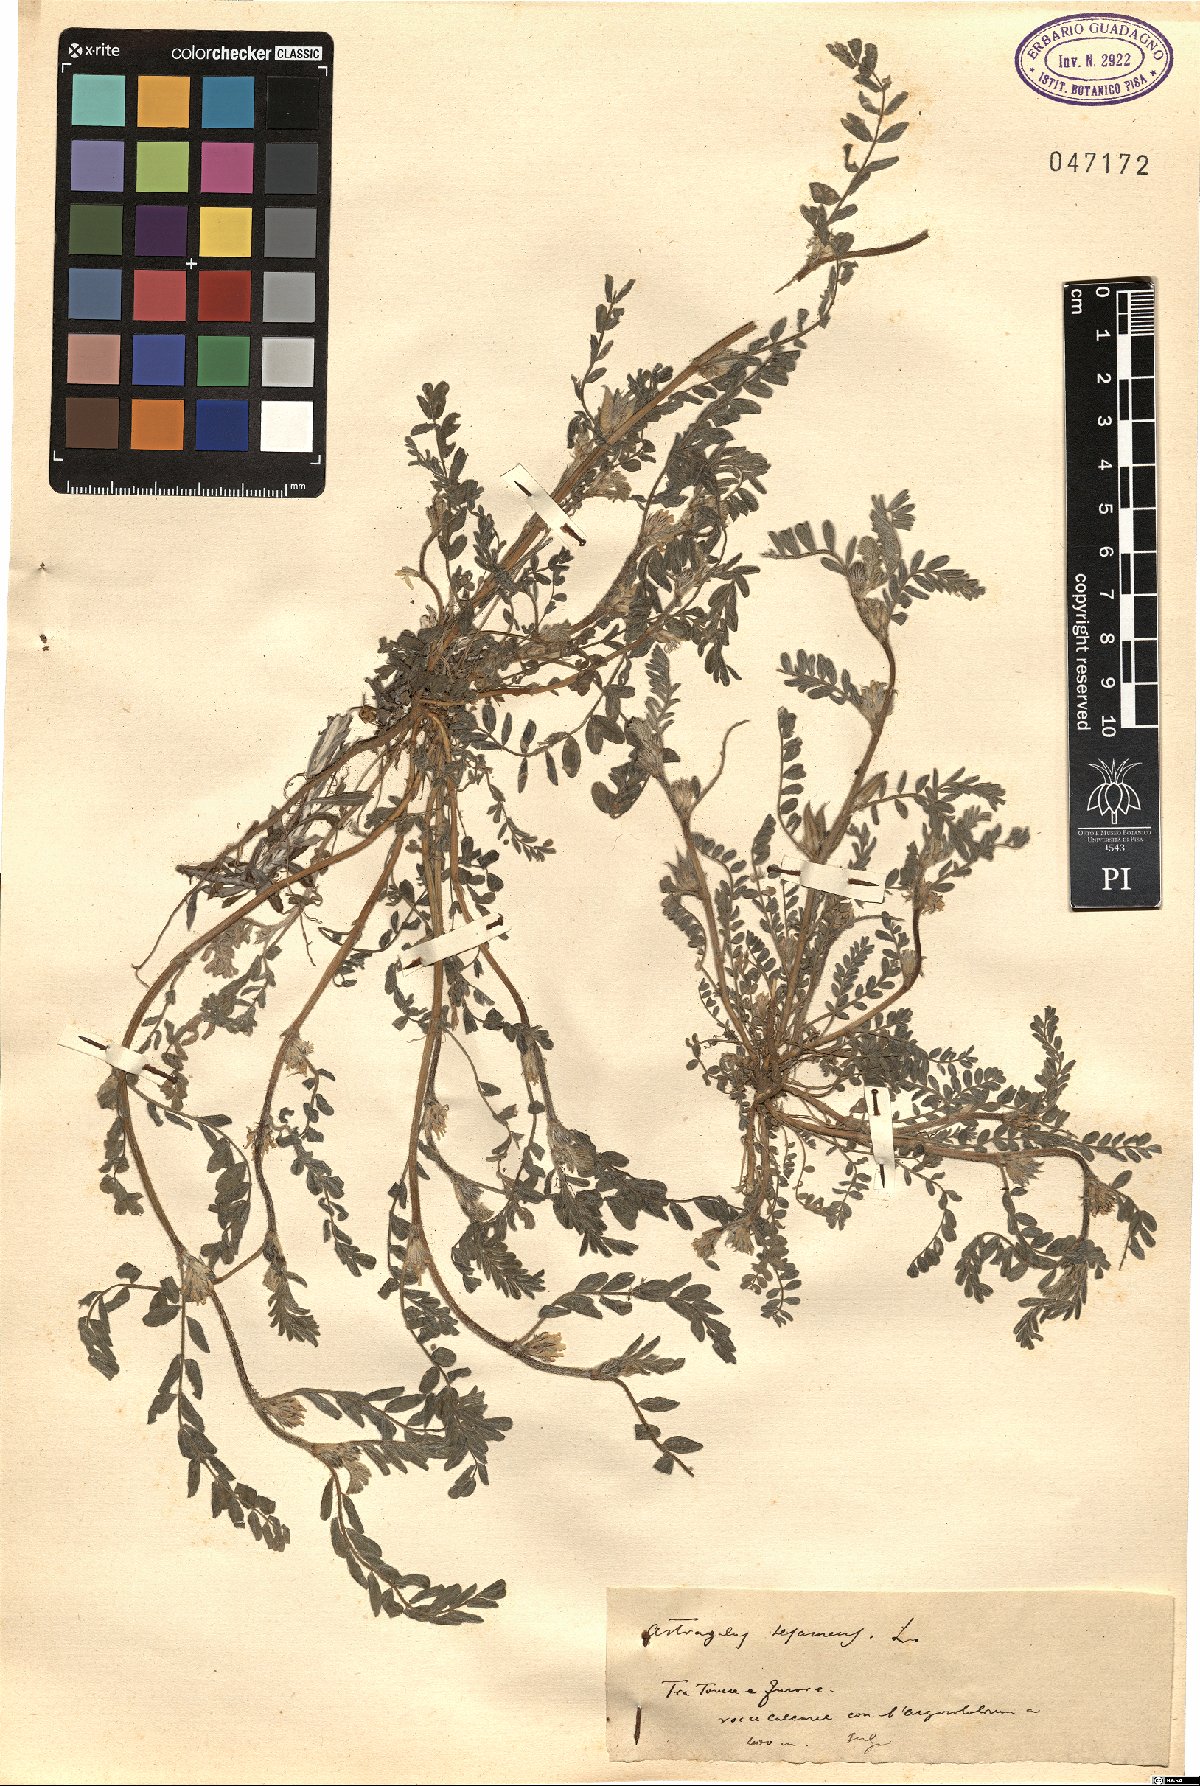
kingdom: Plantae
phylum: Tracheophyta
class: Magnoliopsida
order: Fabales
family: Fabaceae
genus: Astragalus
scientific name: Astragalus sesameus
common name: Purple milk-vetch
